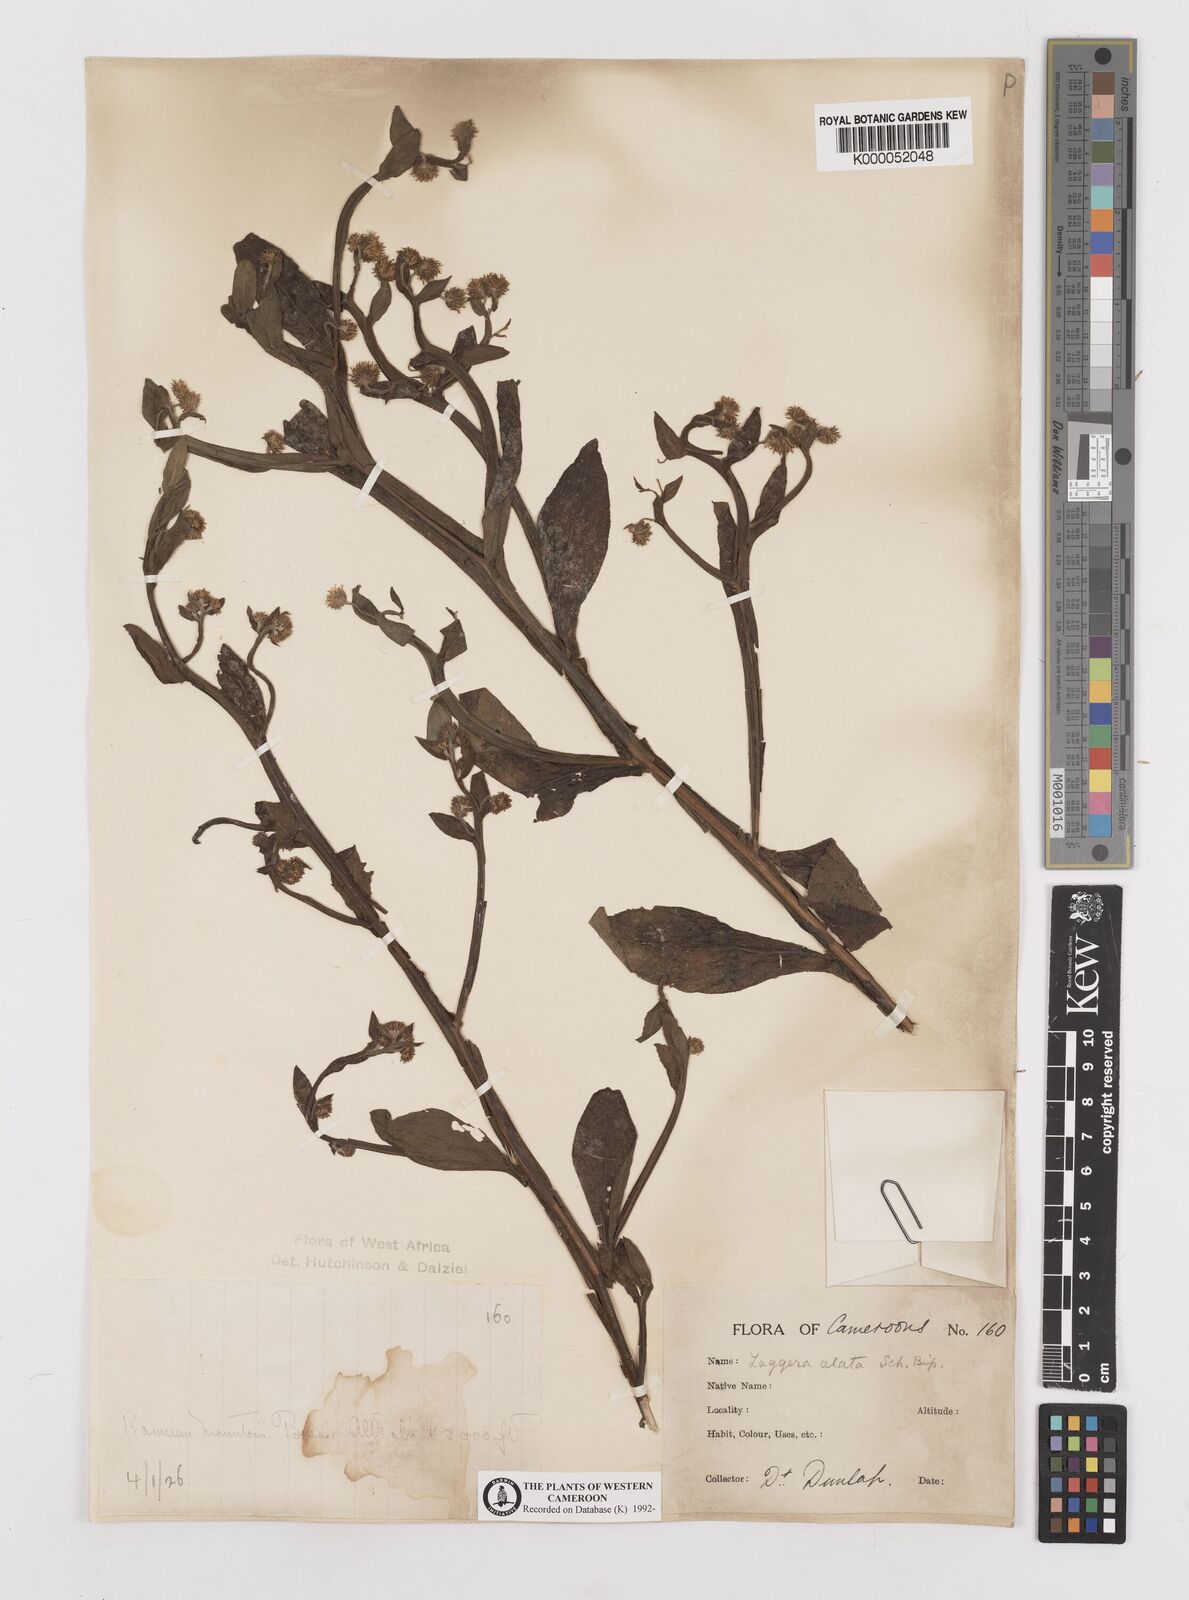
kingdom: Plantae
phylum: Tracheophyta
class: Magnoliopsida
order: Asterales
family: Asteraceae
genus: Laggera
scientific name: Laggera crispata
